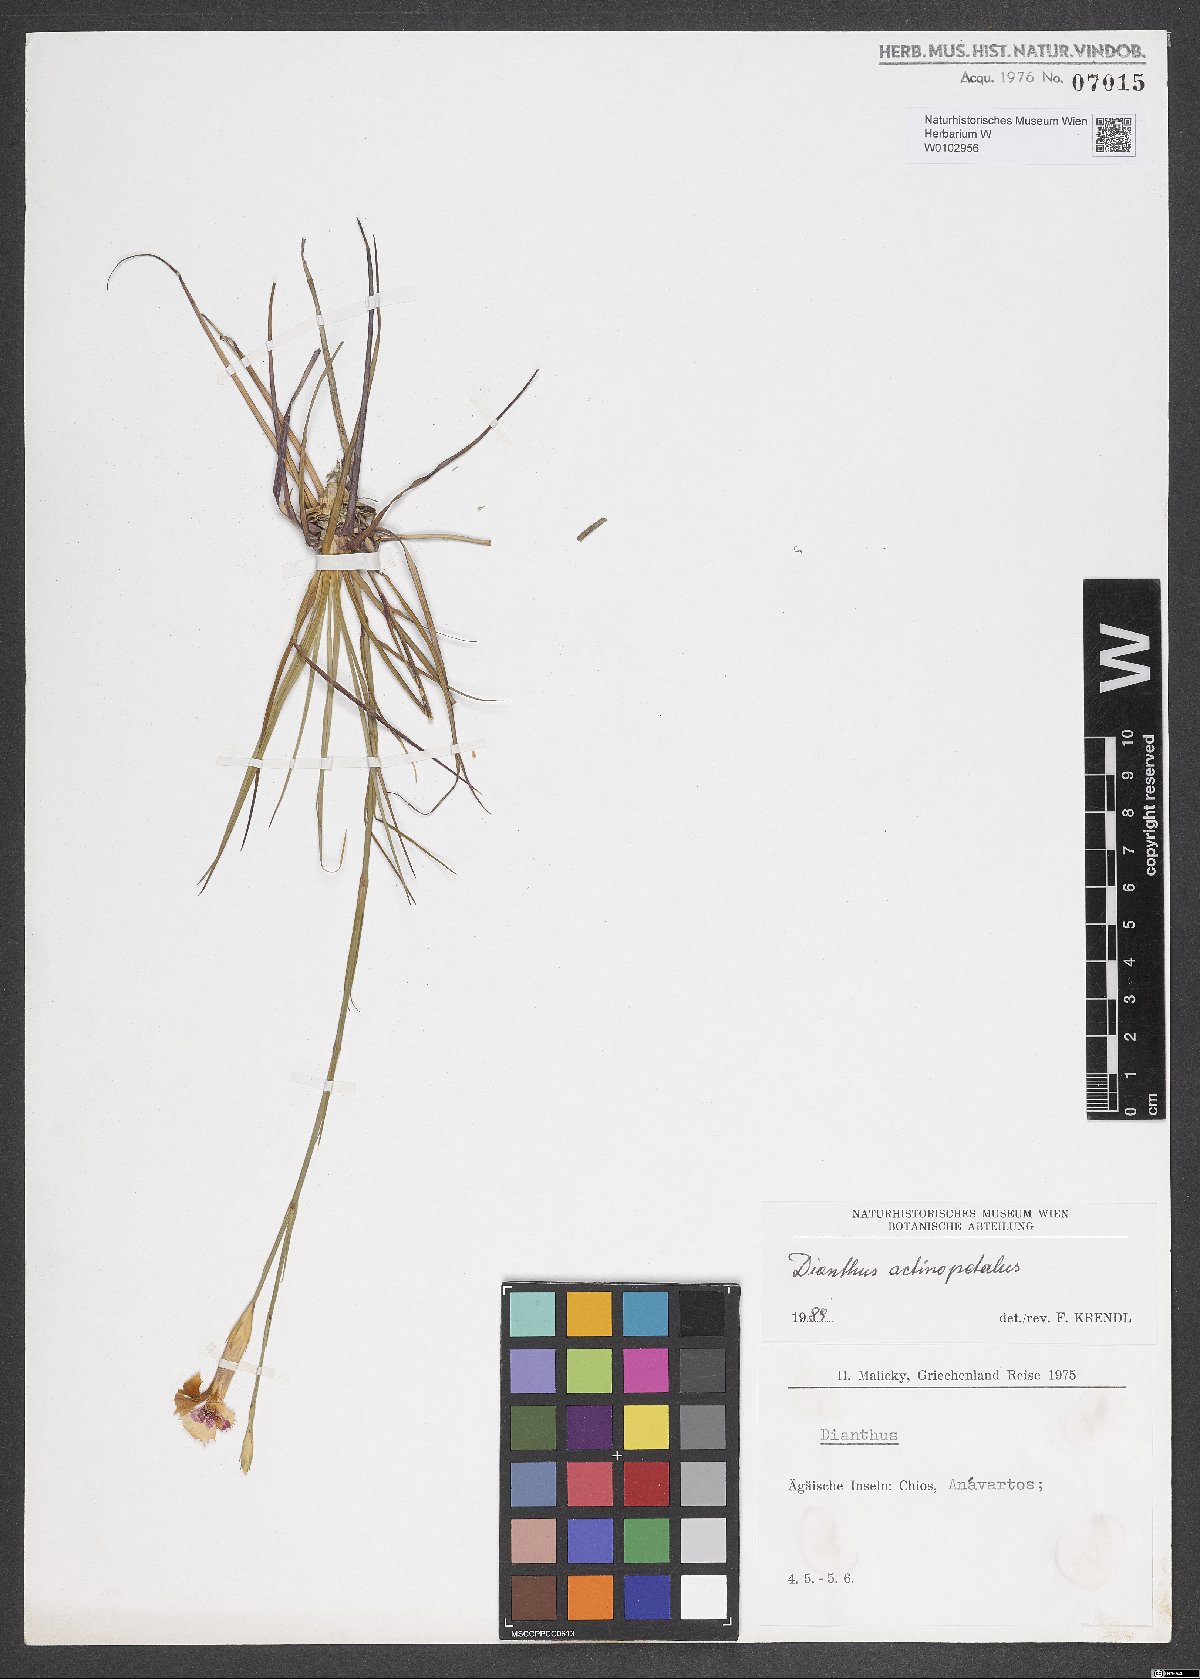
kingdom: Plantae
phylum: Tracheophyta
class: Magnoliopsida
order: Caryophyllales
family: Caryophyllaceae
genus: Dianthus
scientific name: Dianthus elegans
